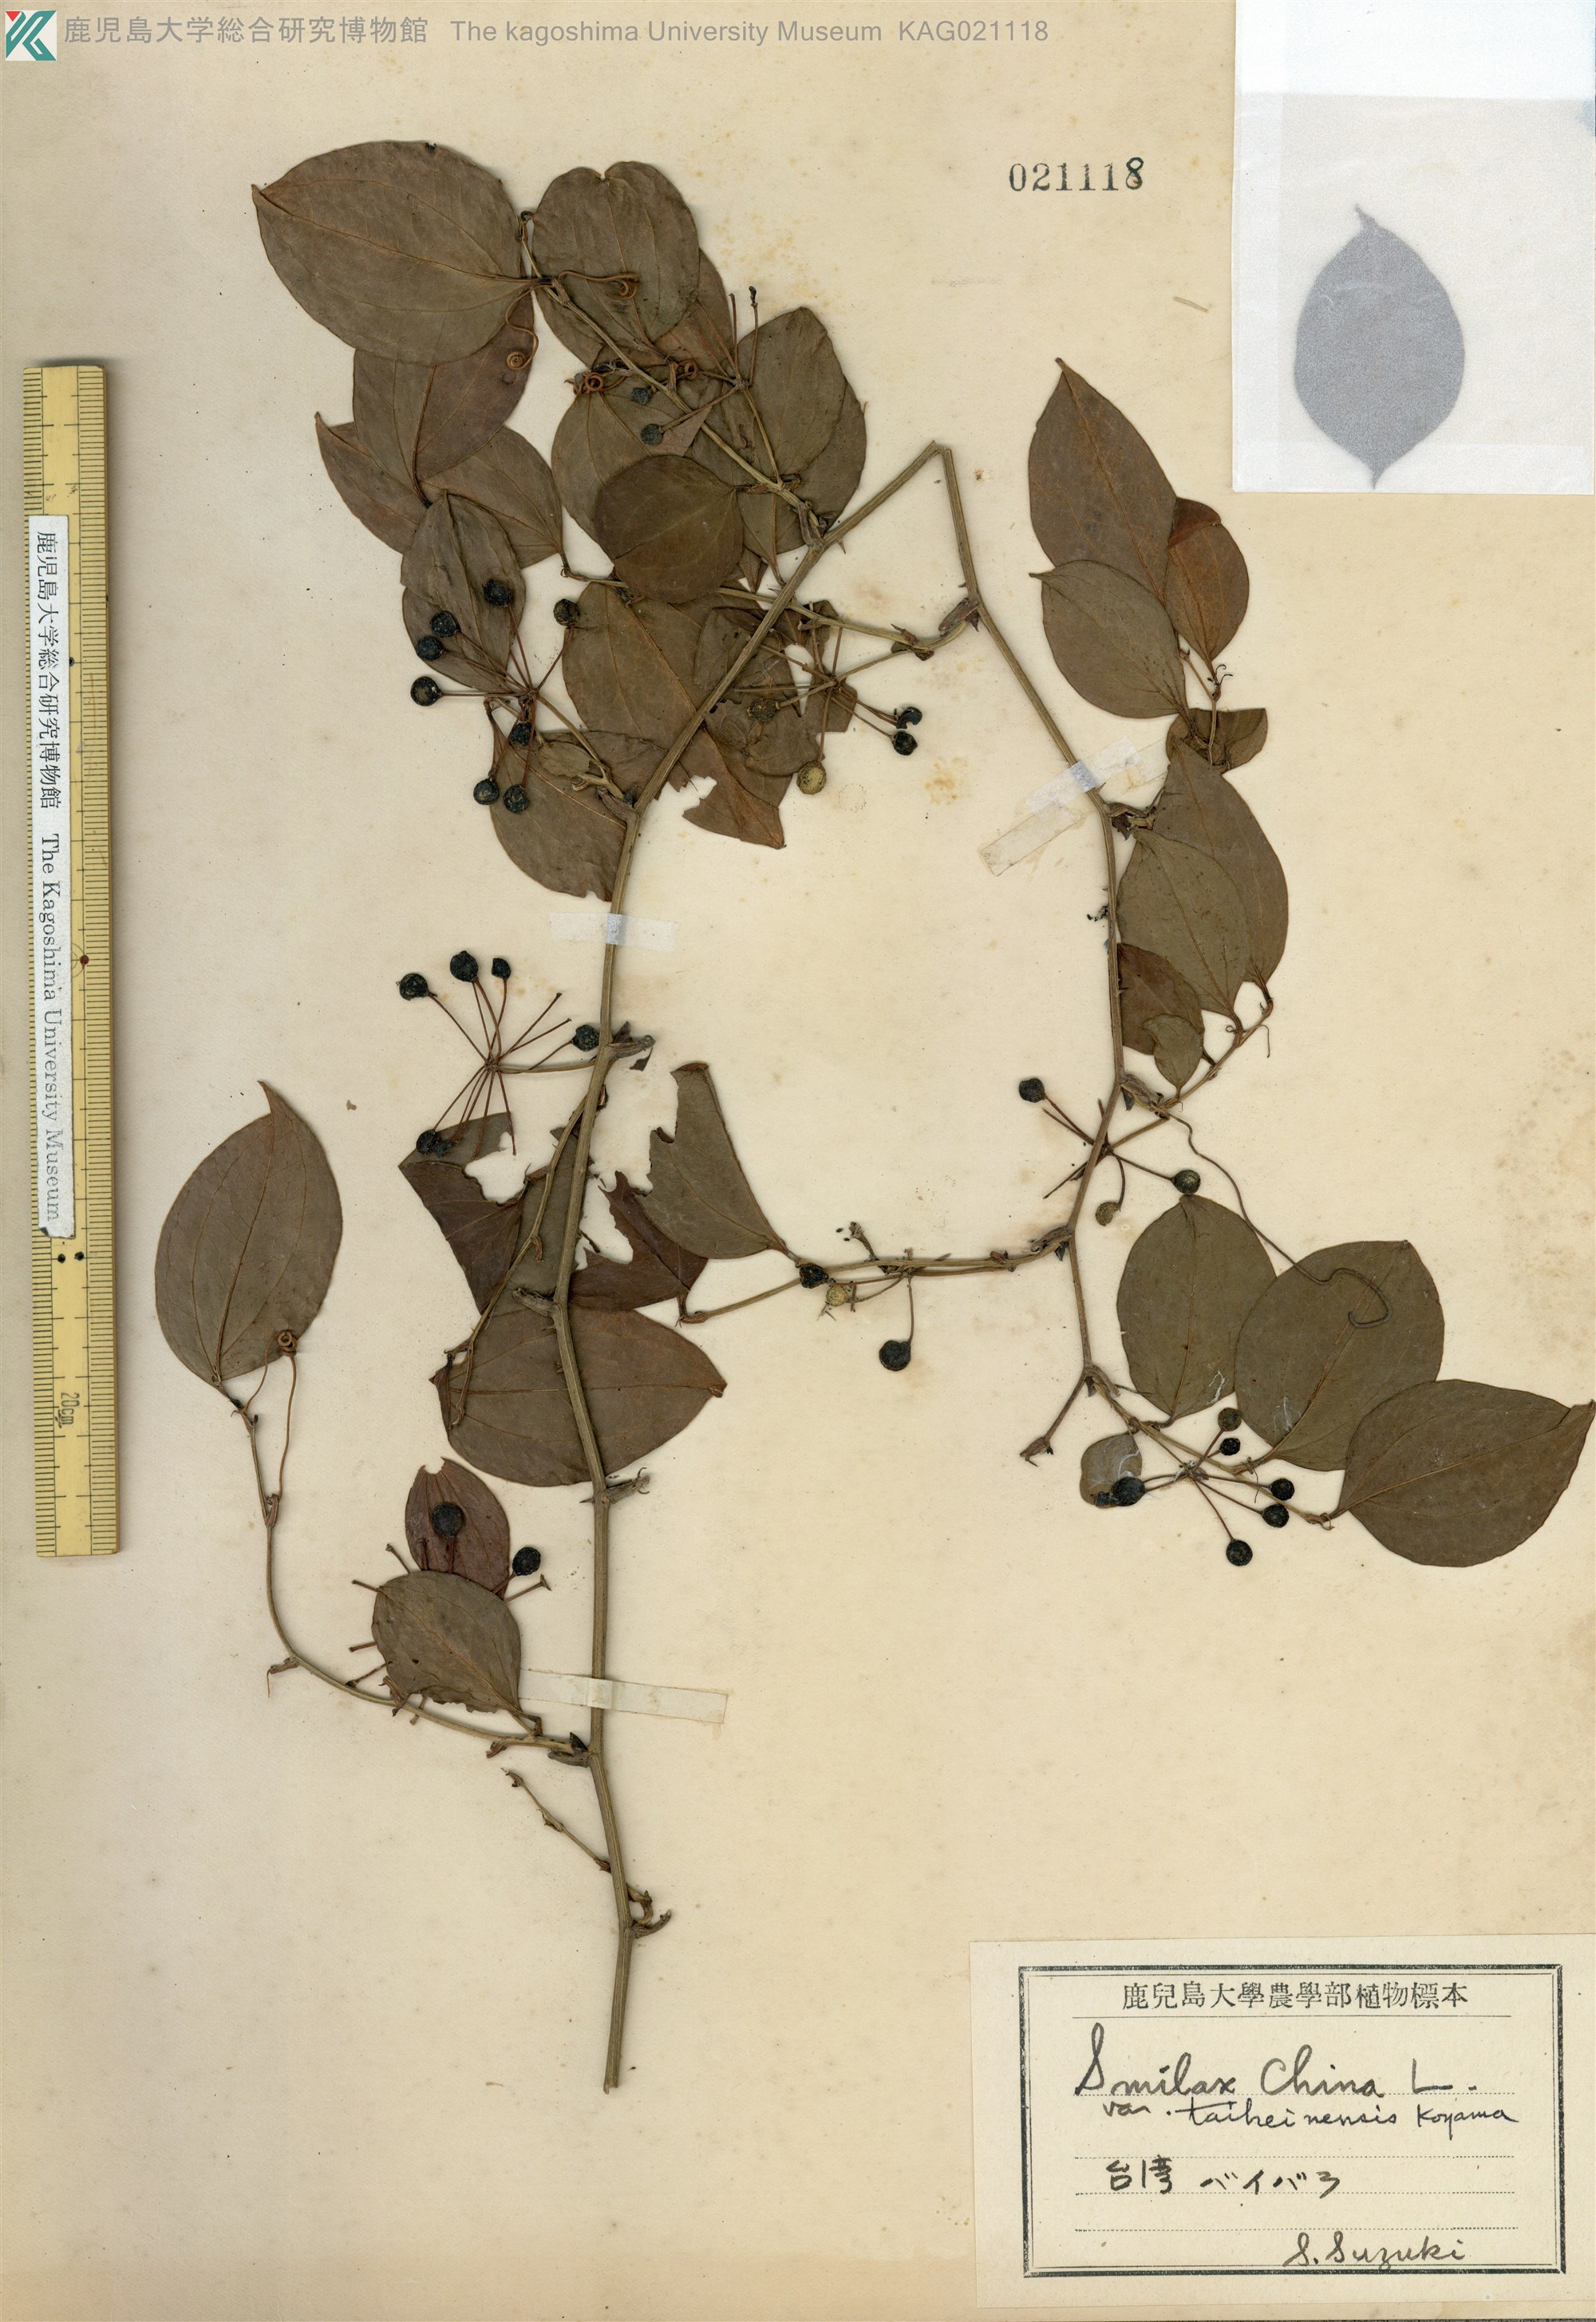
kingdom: Plantae
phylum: Tracheophyta
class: Liliopsida
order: Liliales
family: Smilacaceae
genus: Smilax
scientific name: Smilax china
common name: Chinaroot
